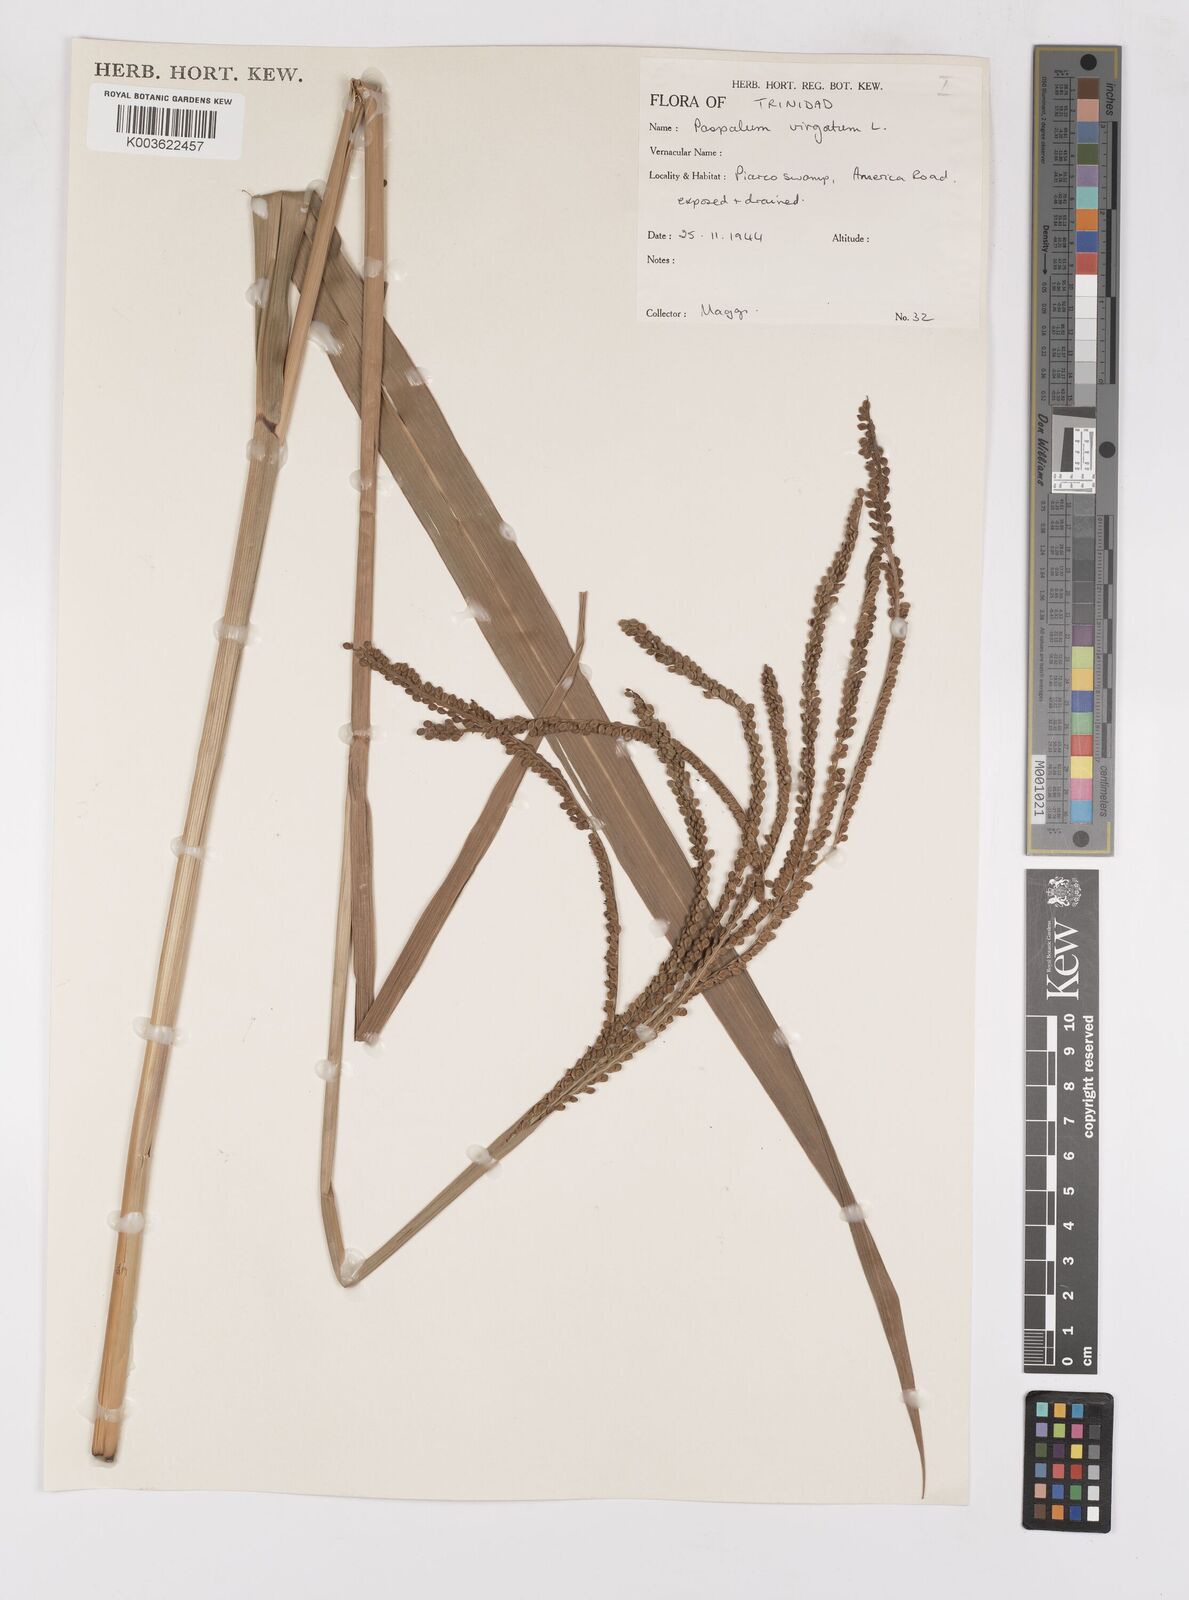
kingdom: Plantae
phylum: Tracheophyta
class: Liliopsida
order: Poales
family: Poaceae
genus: Paspalum
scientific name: Paspalum virgatum
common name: Talquezal
